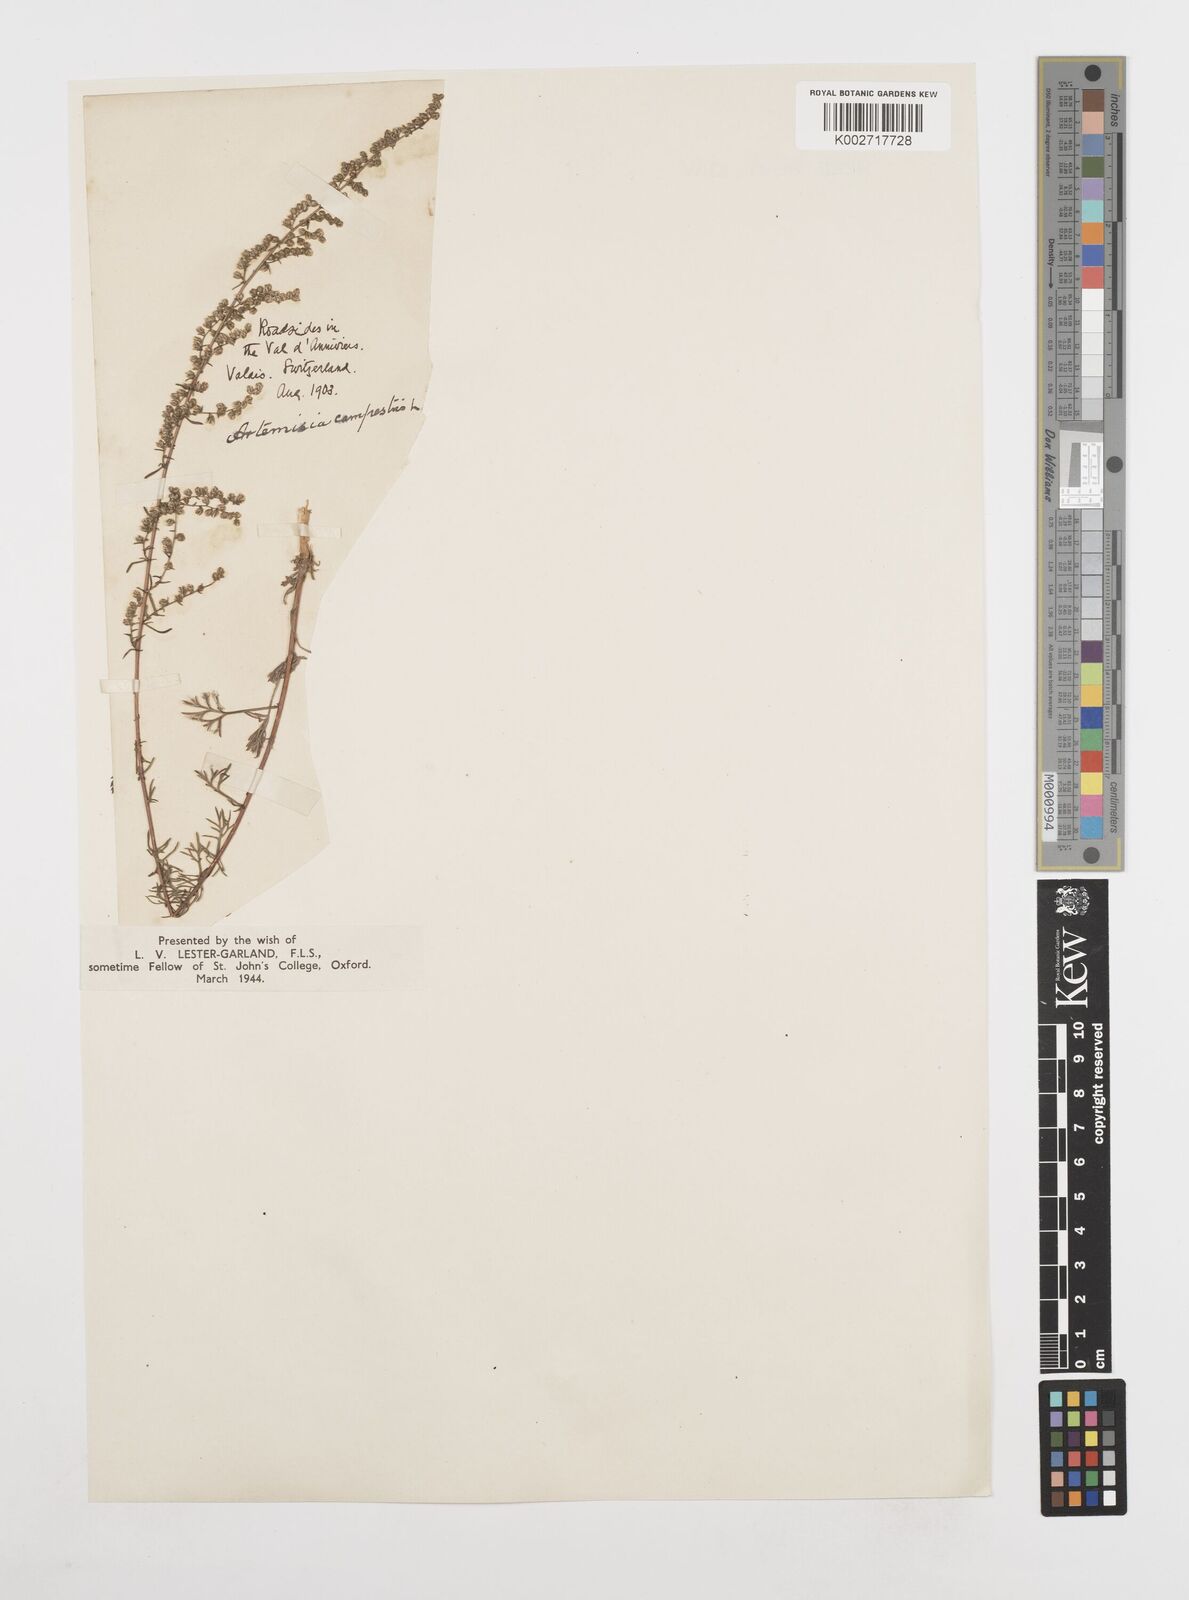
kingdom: Plantae
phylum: Tracheophyta
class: Magnoliopsida
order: Asterales
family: Asteraceae
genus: Artemisia
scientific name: Artemisia campestris
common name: Field wormwood
